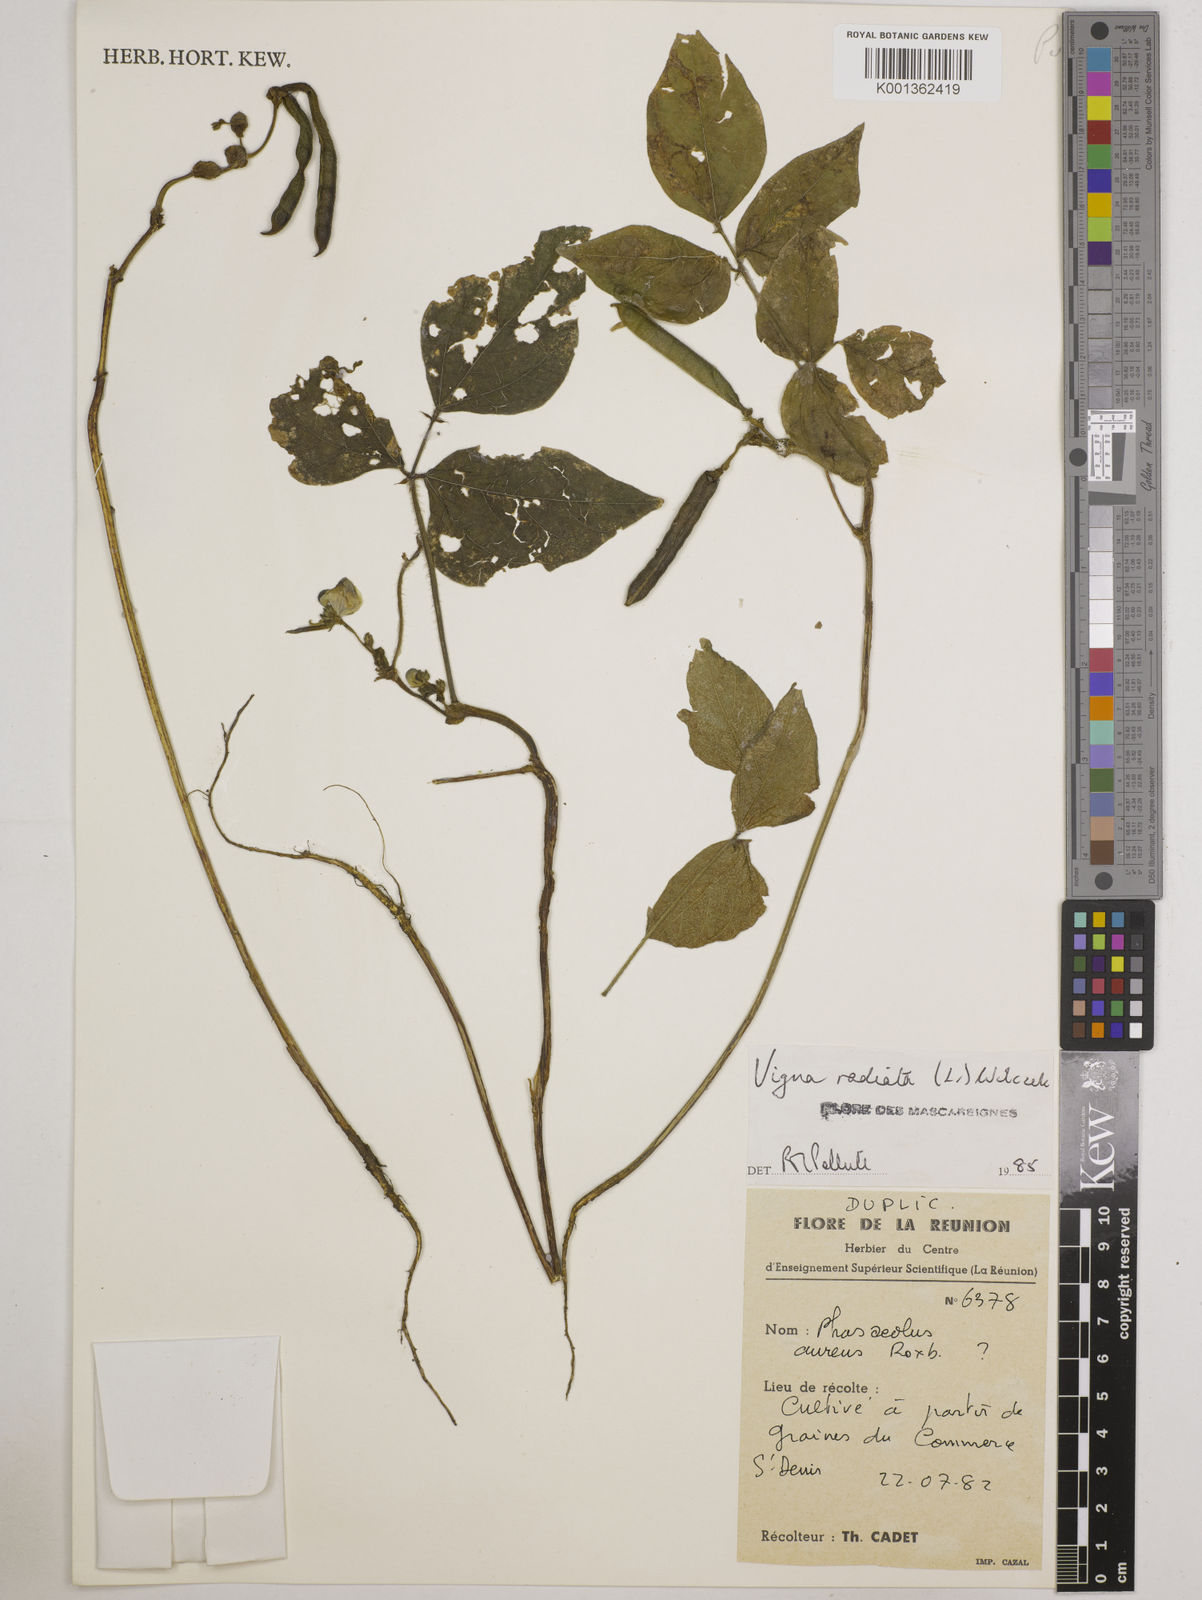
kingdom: Plantae
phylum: Tracheophyta
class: Magnoliopsida
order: Fabales
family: Fabaceae
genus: Vigna
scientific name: Vigna radiata
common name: Mung-bean
